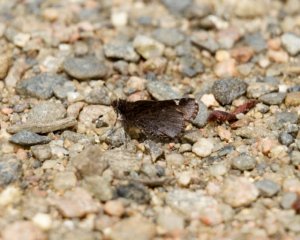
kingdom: Animalia
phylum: Arthropoda
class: Insecta
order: Lepidoptera
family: Hesperiidae
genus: Mastor
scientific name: Mastor vialis
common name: Common Roadside-Skipper
